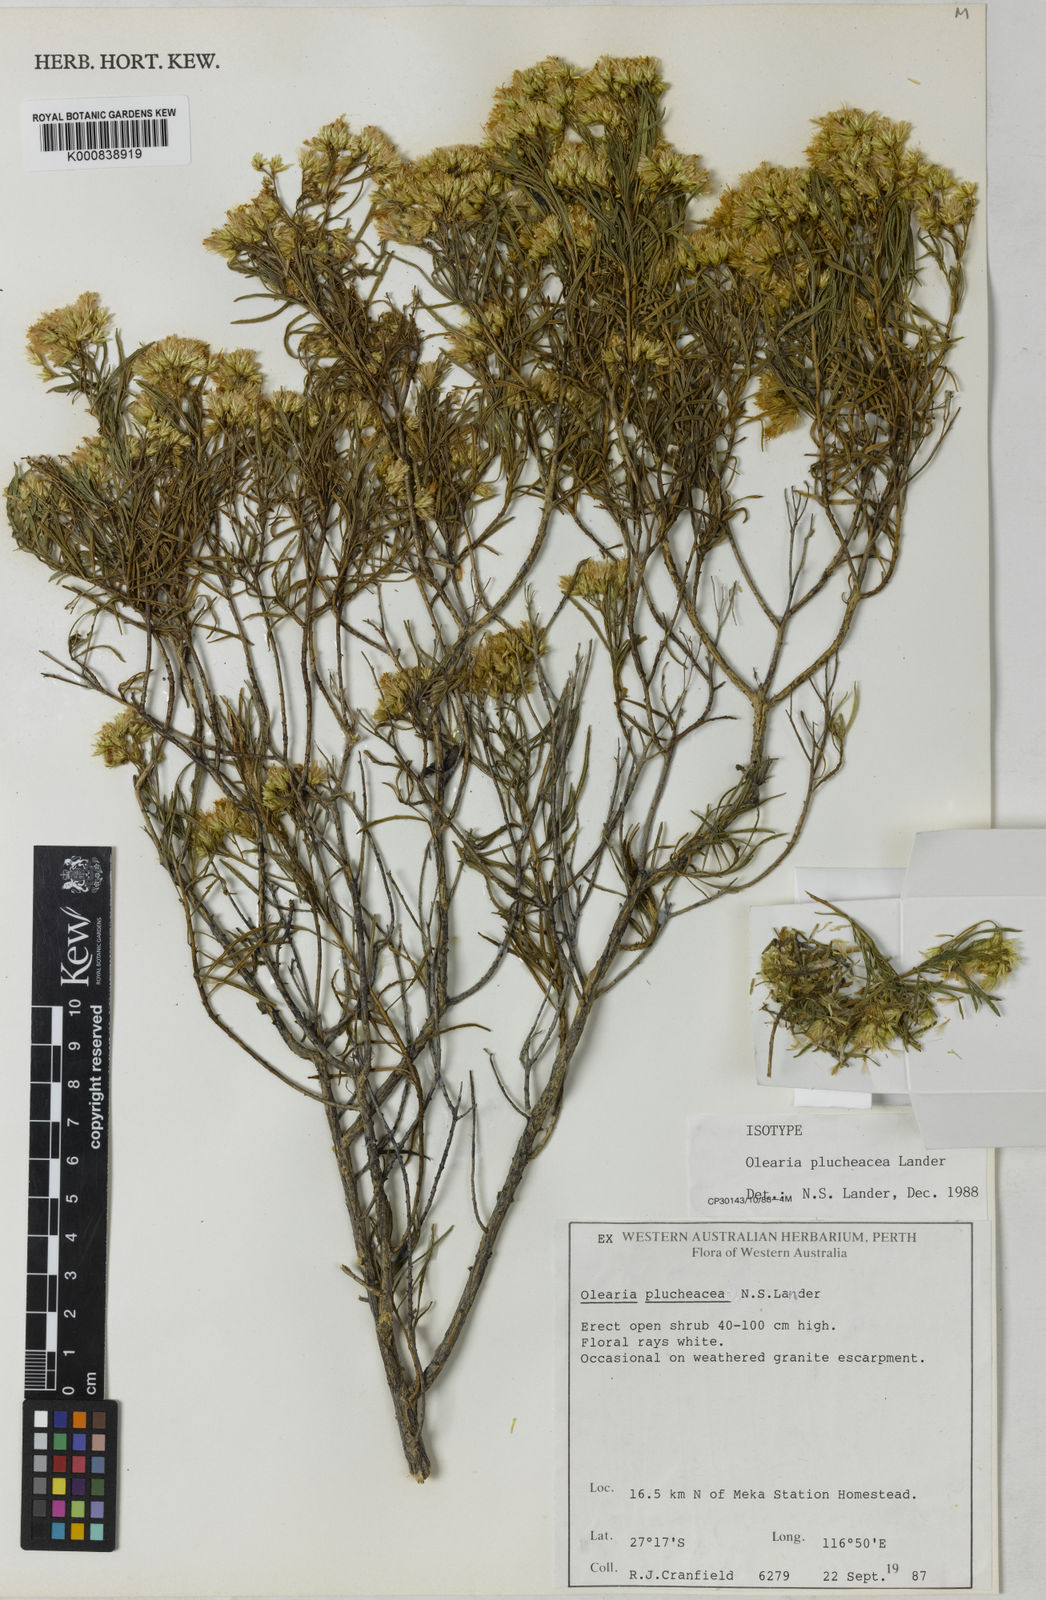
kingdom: Plantae
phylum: Tracheophyta
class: Magnoliopsida
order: Asterales
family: Asteraceae
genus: Olearia
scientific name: Olearia plucheacea
